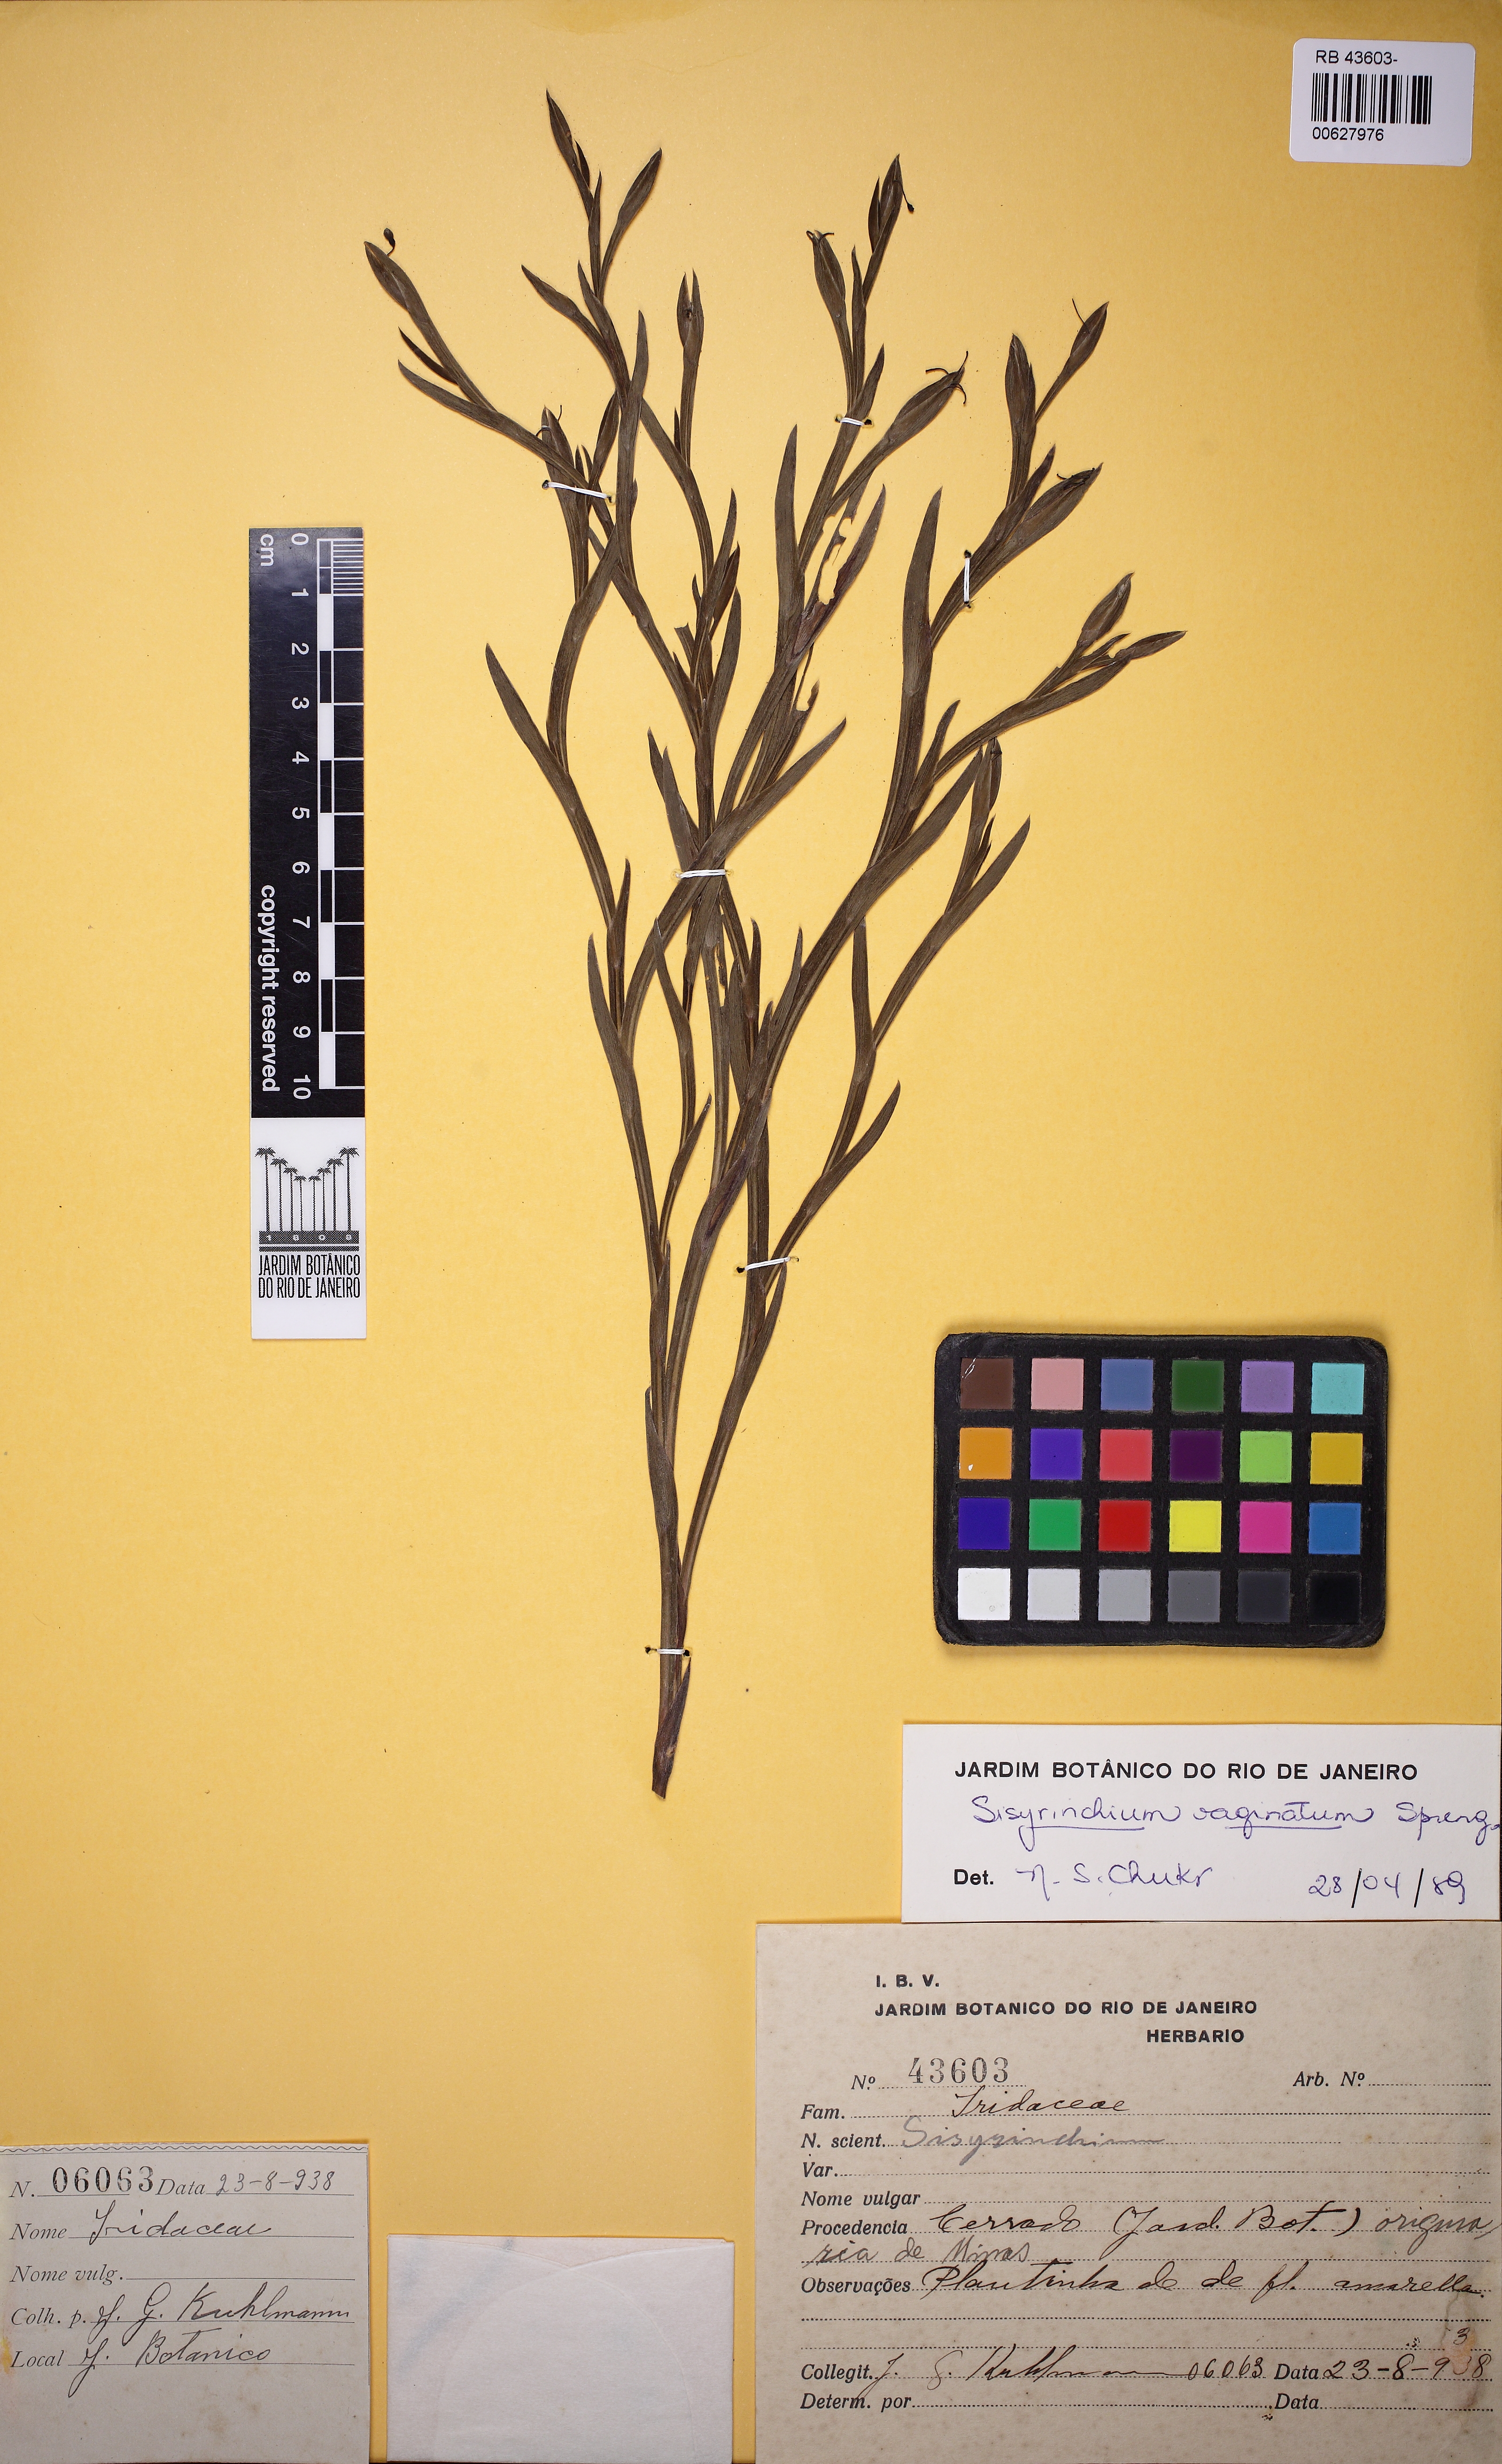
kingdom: Plantae
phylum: Tracheophyta
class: Liliopsida
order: Asparagales
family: Iridaceae
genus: Sisyrinchium
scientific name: Sisyrinchium vaginatum
